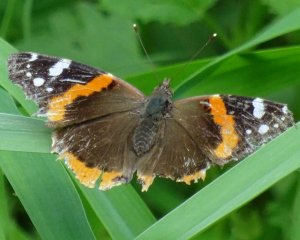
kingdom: Animalia
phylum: Arthropoda
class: Insecta
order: Lepidoptera
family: Nymphalidae
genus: Vanessa
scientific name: Vanessa atalanta
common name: Red Admiral
